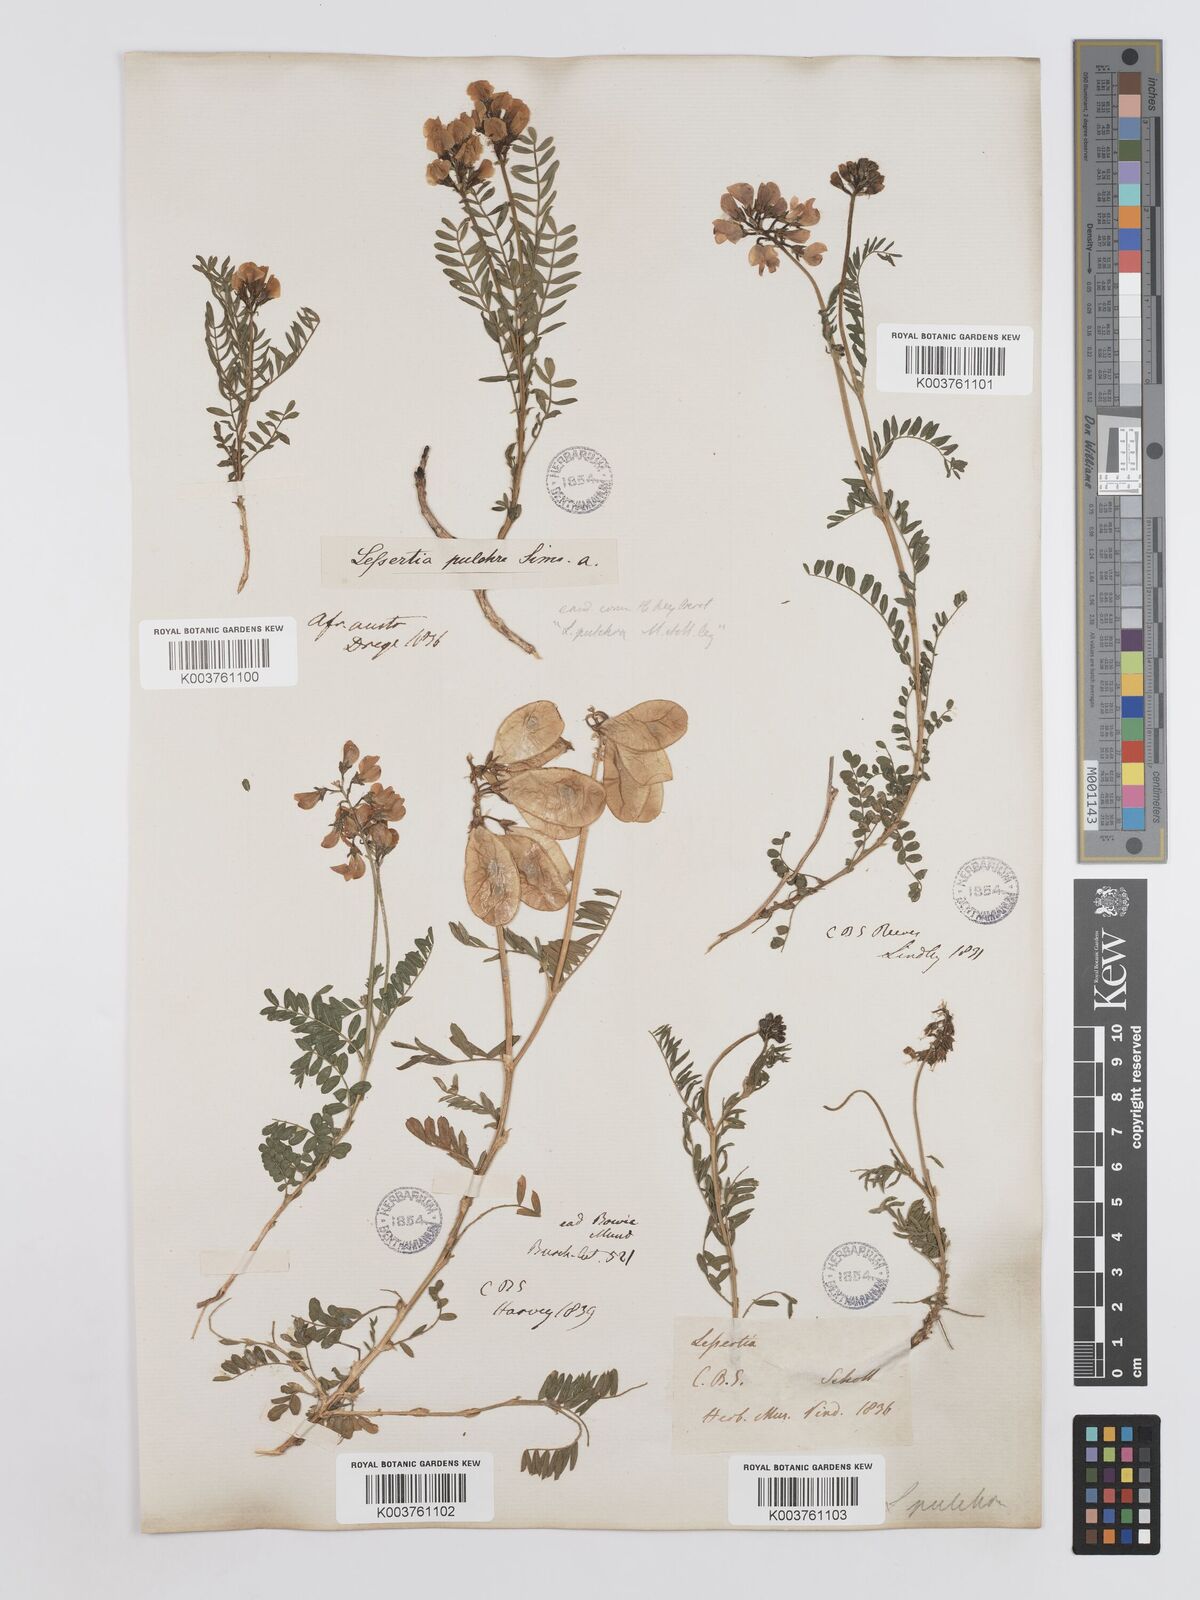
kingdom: Plantae
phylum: Tracheophyta
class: Magnoliopsida
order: Fabales
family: Fabaceae
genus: Lessertia
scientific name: Lessertia capensis
